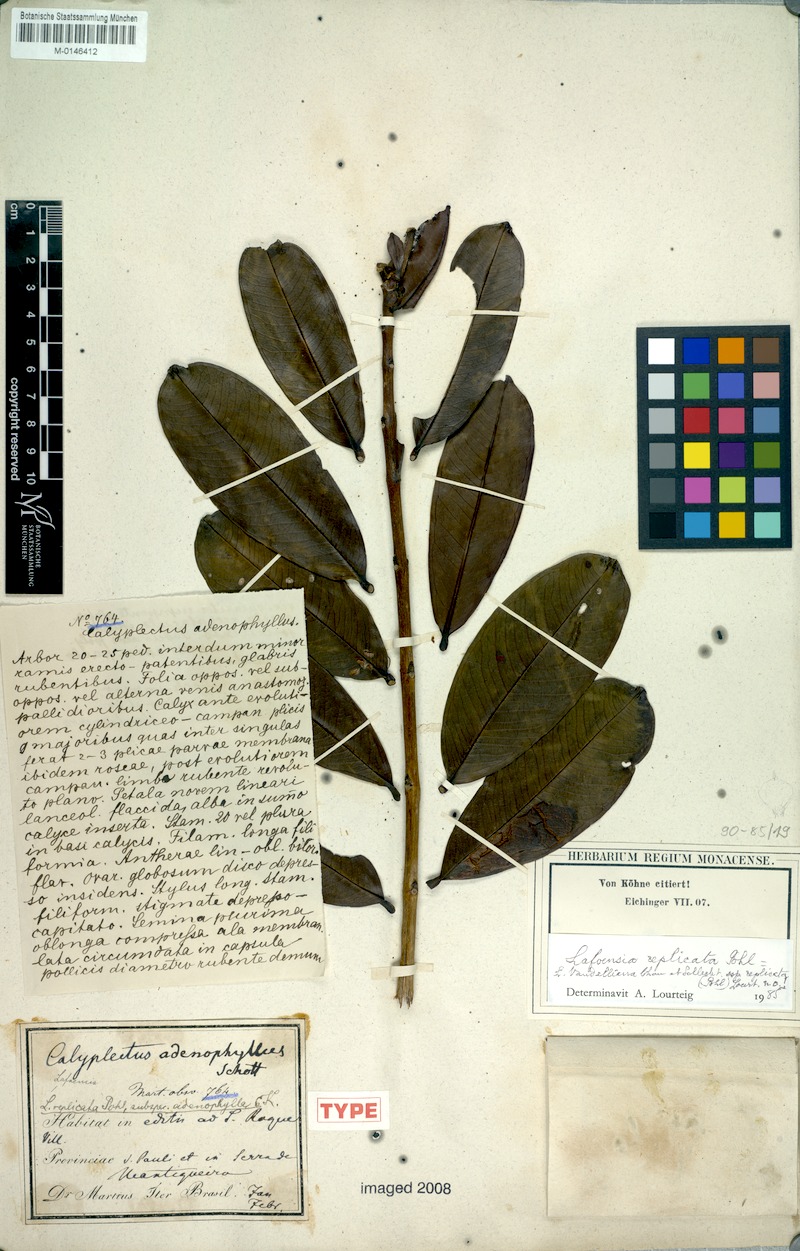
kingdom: Plantae
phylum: Tracheophyta
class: Magnoliopsida
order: Malvales
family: Thymelaeaceae
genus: Daphne
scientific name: Daphne papyracea
